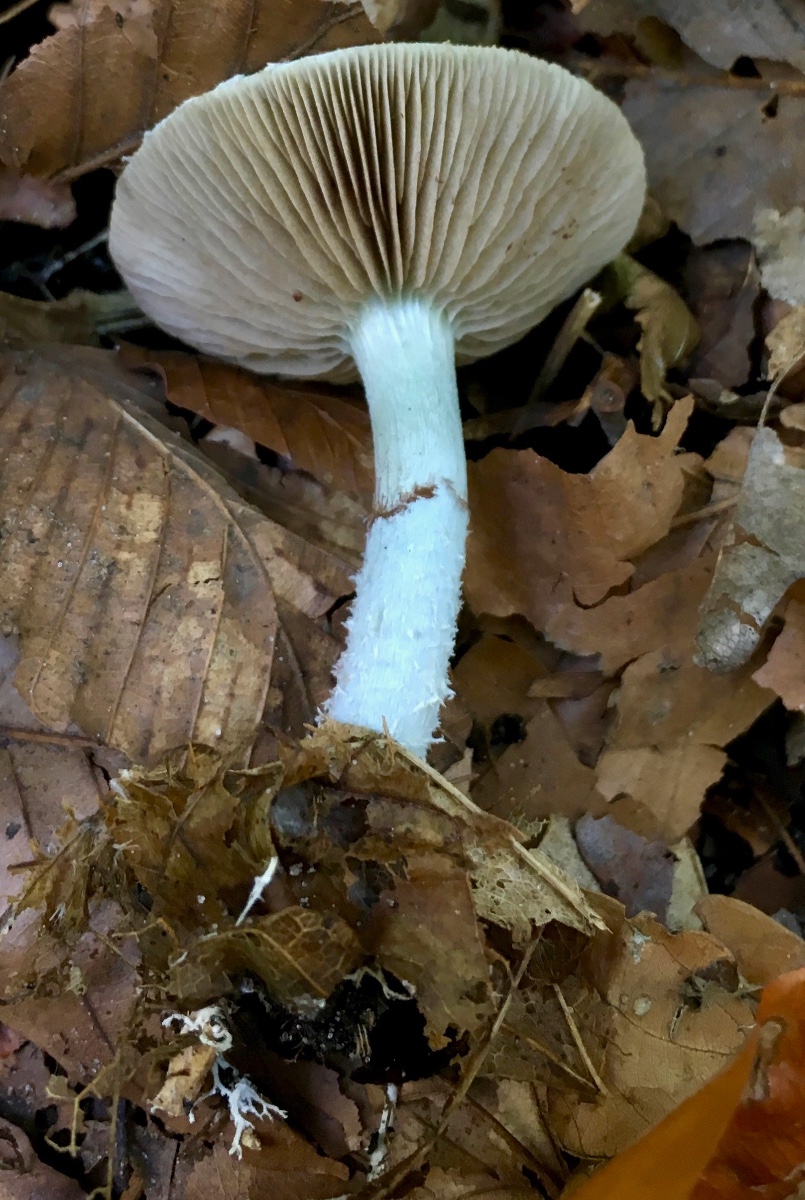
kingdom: Fungi
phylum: Basidiomycota
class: Agaricomycetes
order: Agaricales
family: Strophariaceae
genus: Stropharia
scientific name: Stropharia cyanea
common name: blågrøn bredblad
